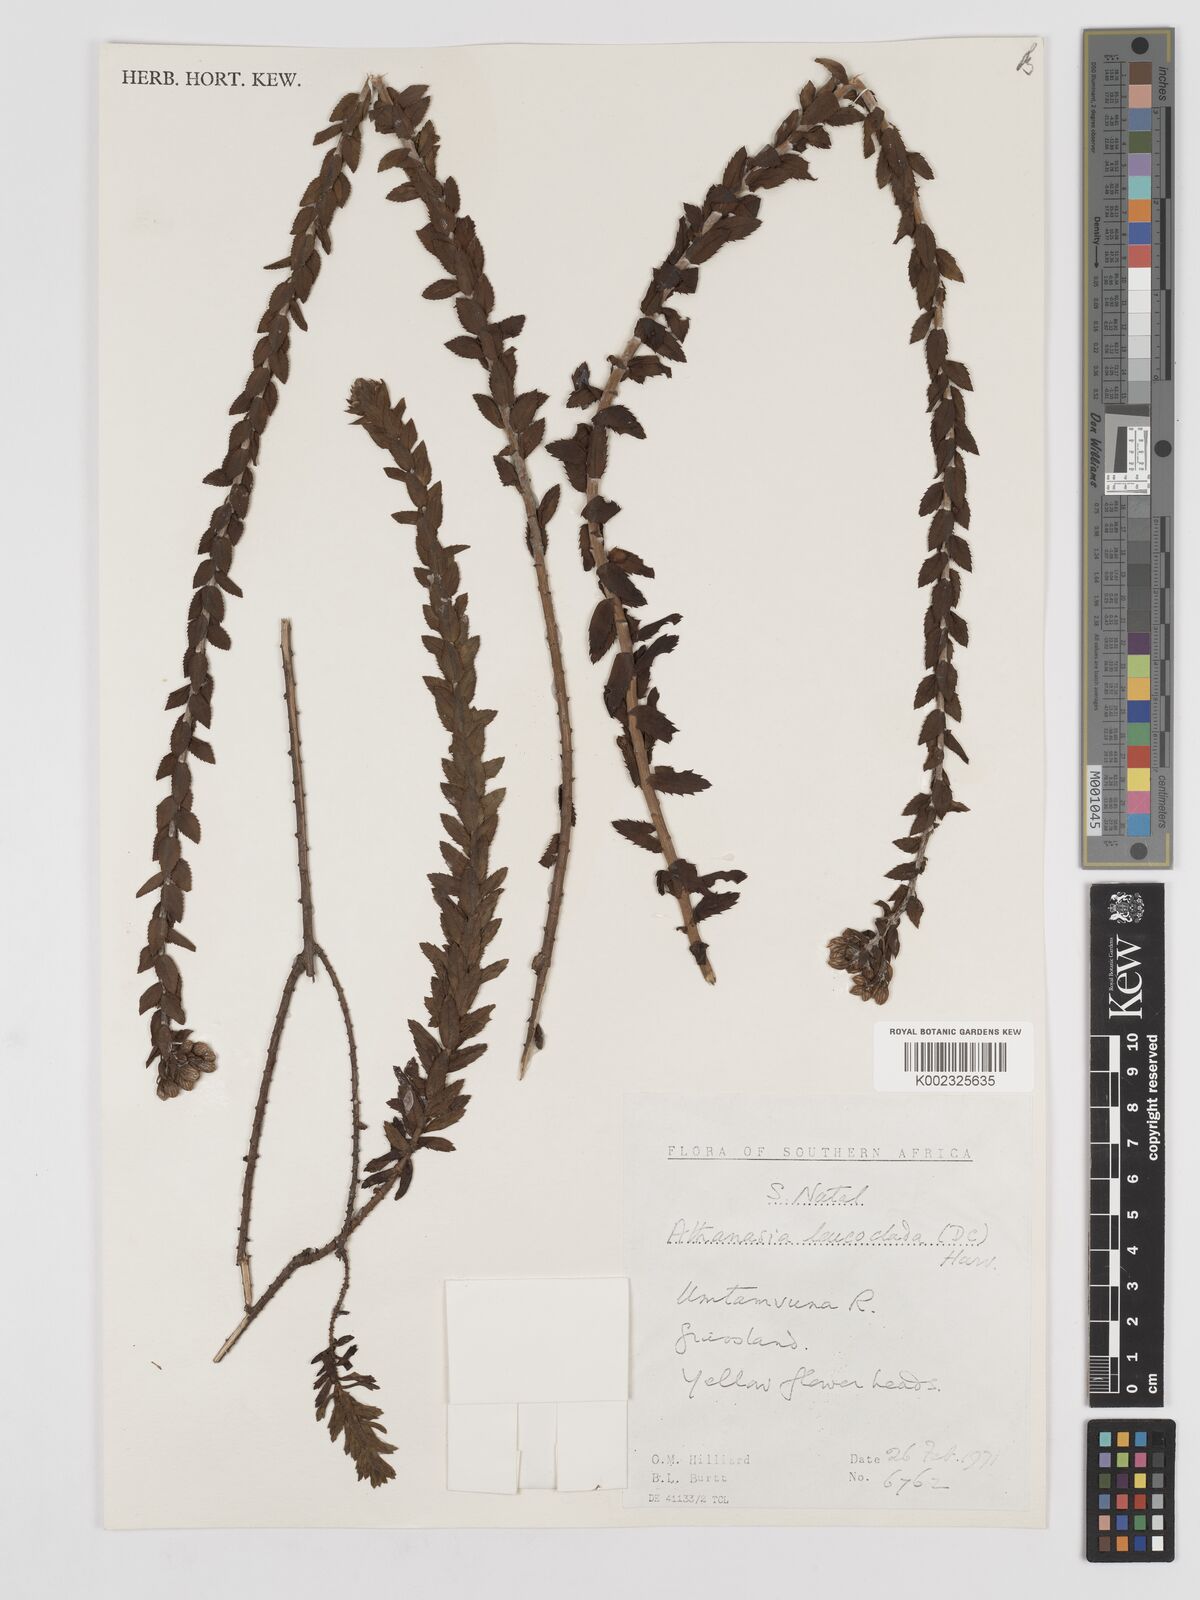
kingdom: Plantae
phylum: Tracheophyta
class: Magnoliopsida
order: Asterales
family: Asteraceae
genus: Inulanthera
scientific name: Inulanthera leucoclada
